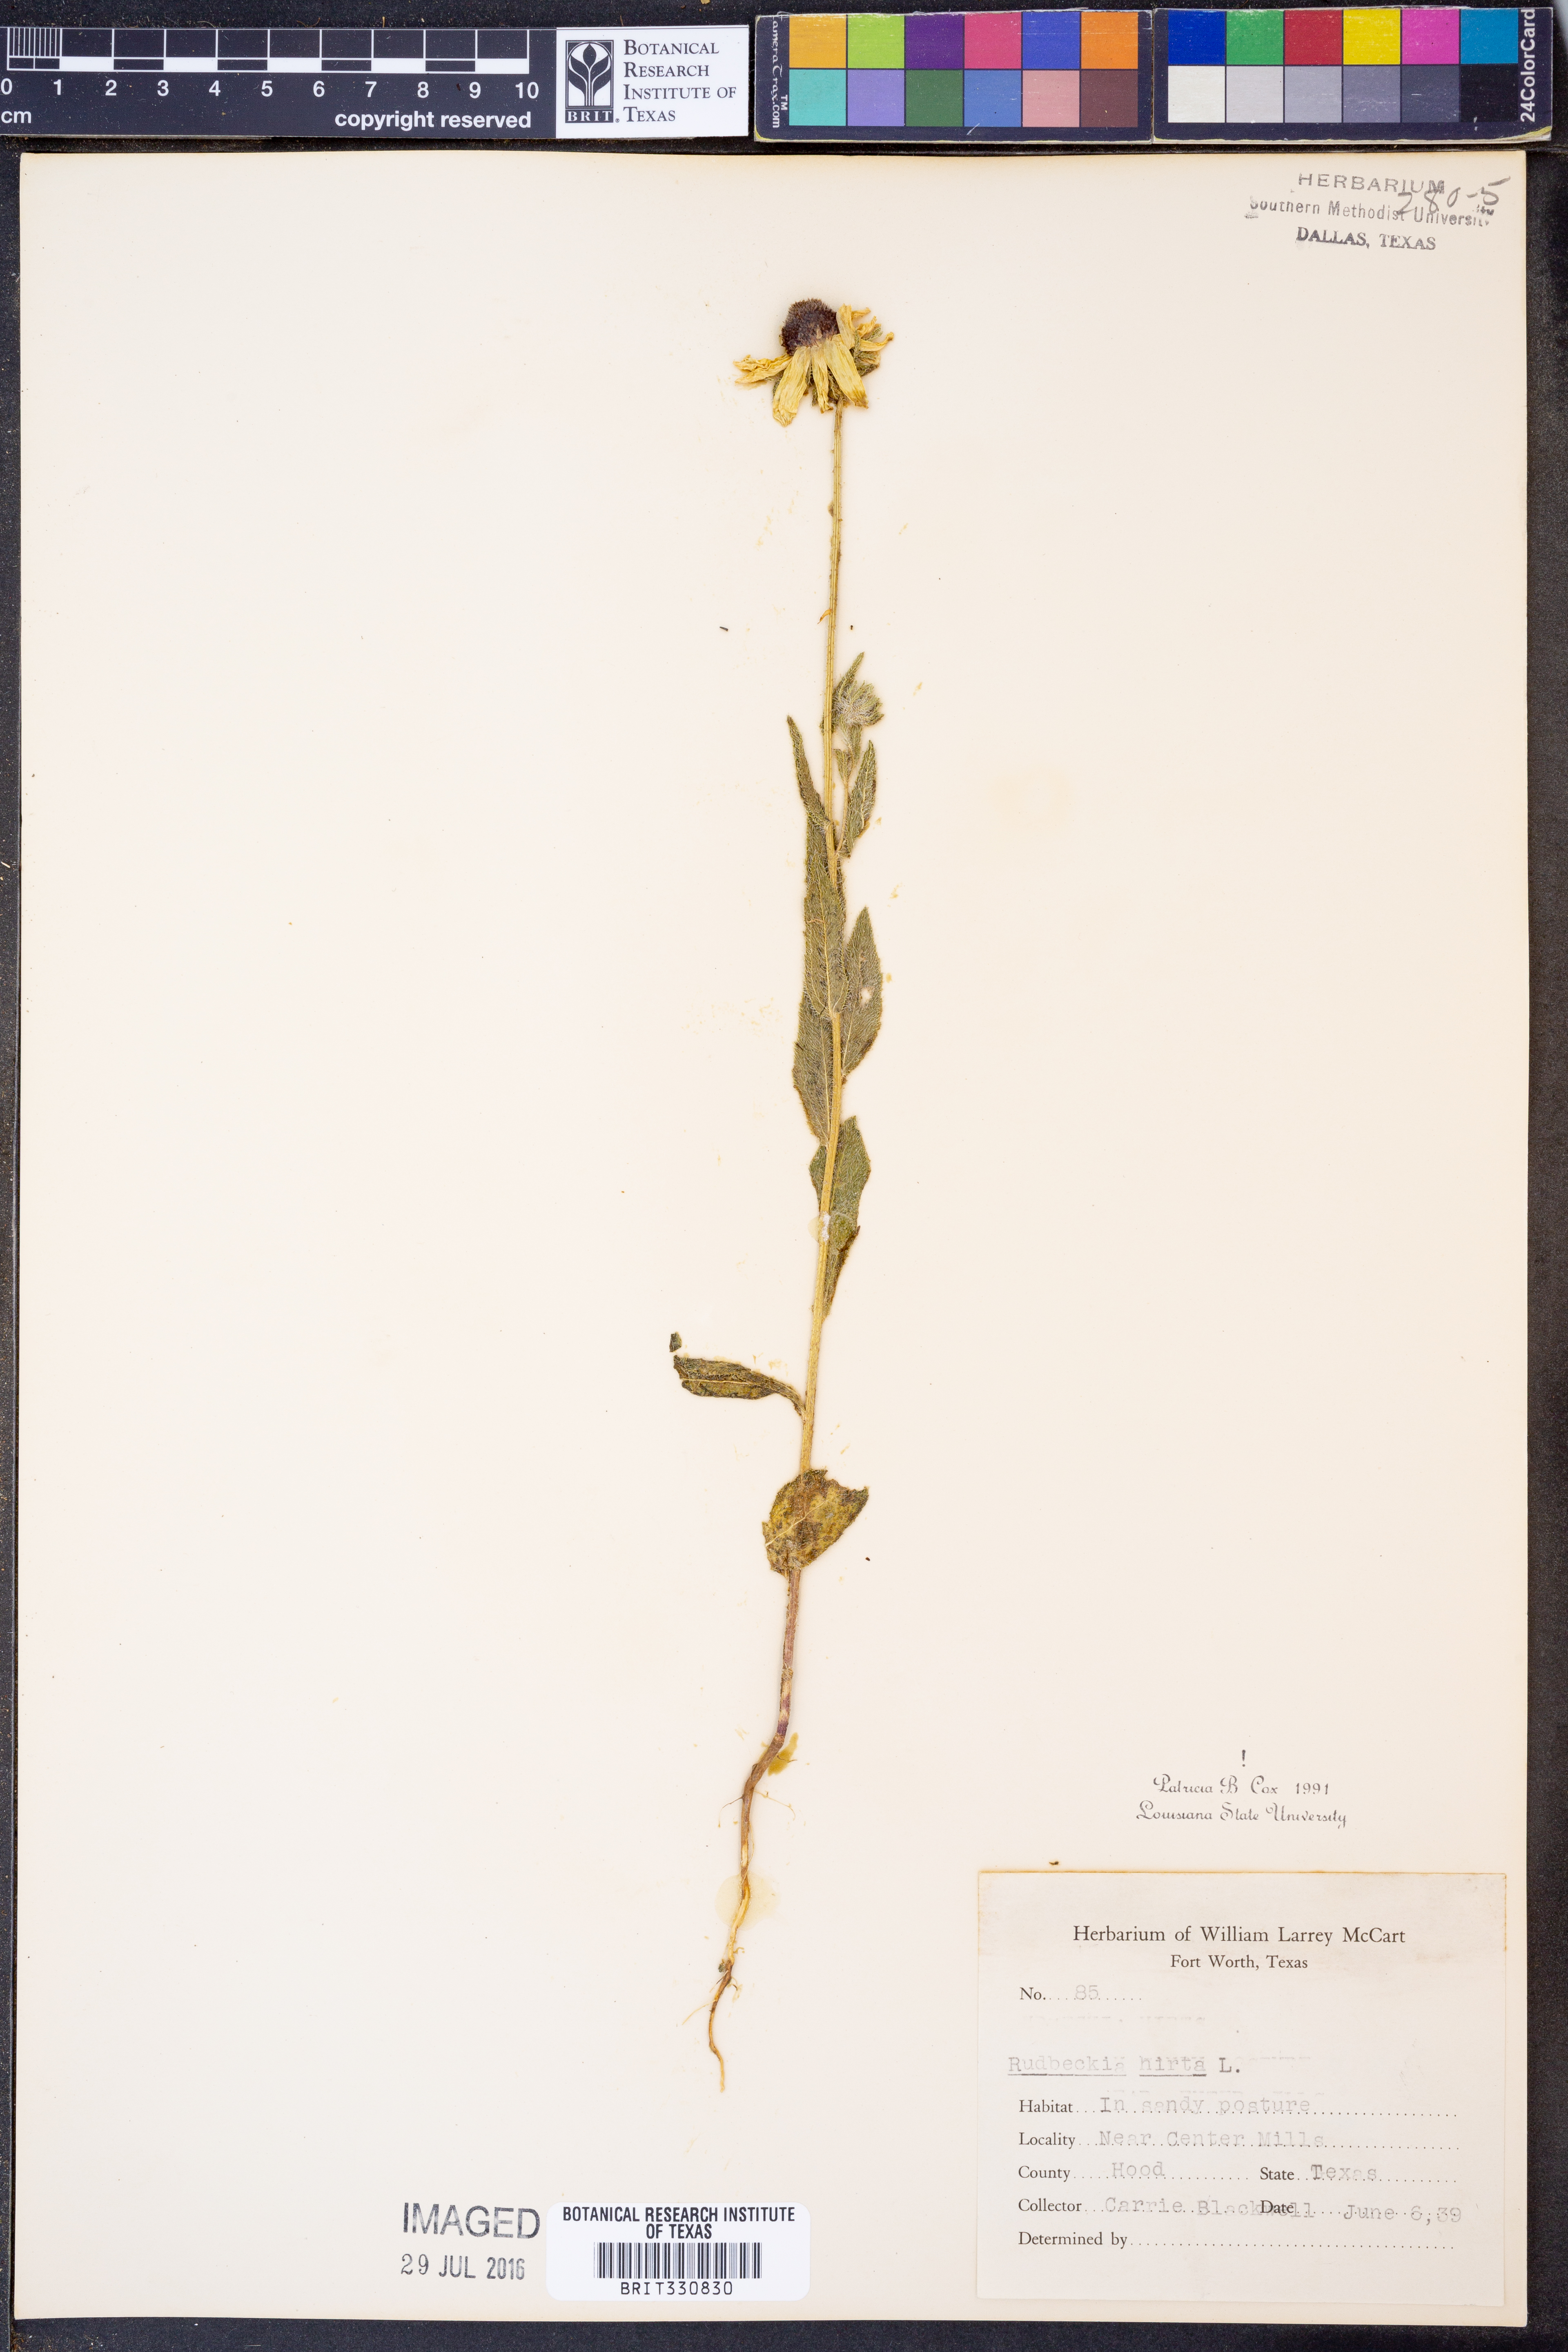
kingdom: Plantae
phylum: Tracheophyta
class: Magnoliopsida
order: Asterales
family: Asteraceae
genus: Rudbeckia
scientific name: Rudbeckia hirta
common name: Black-eyed-susan
